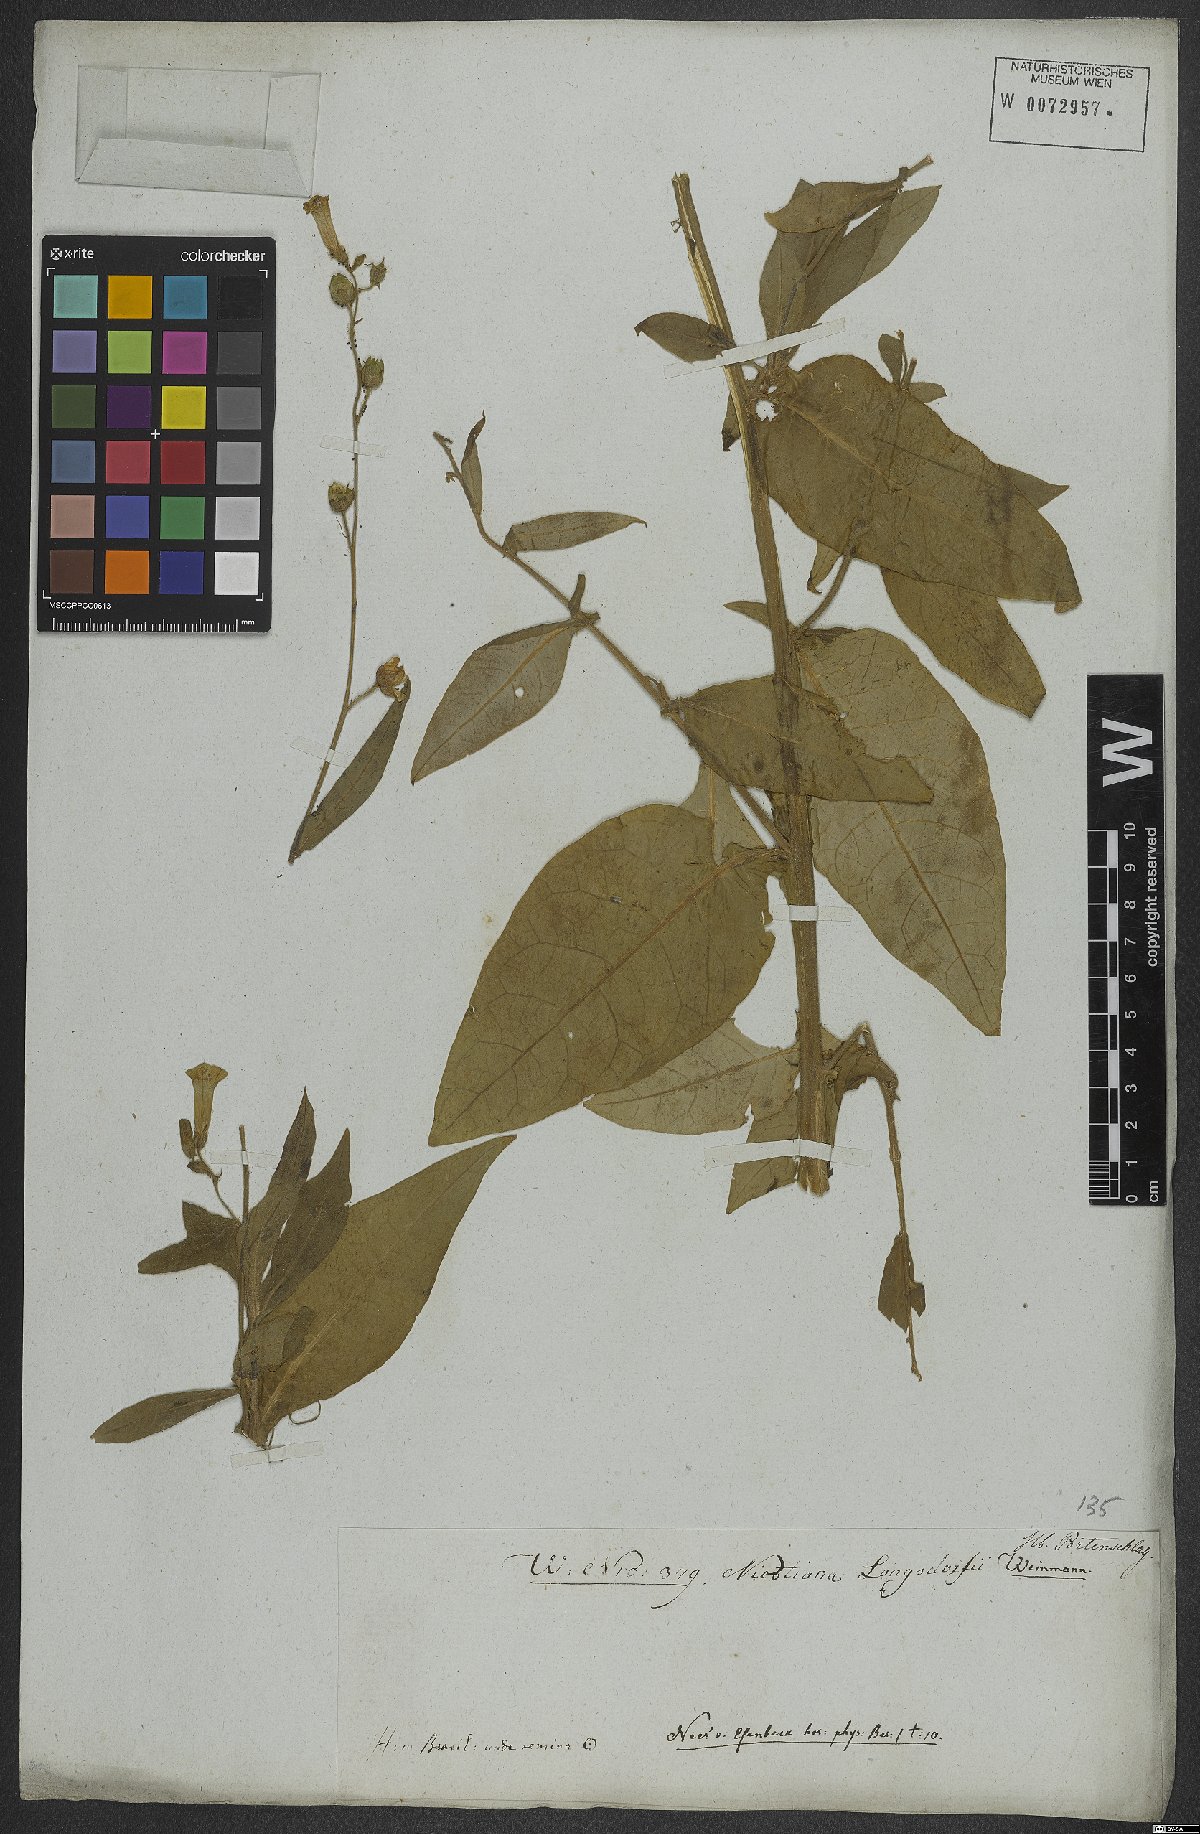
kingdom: Plantae
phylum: Tracheophyta
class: Magnoliopsida
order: Solanales
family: Solanaceae
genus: Nicotiana
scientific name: Nicotiana langsdorffii
